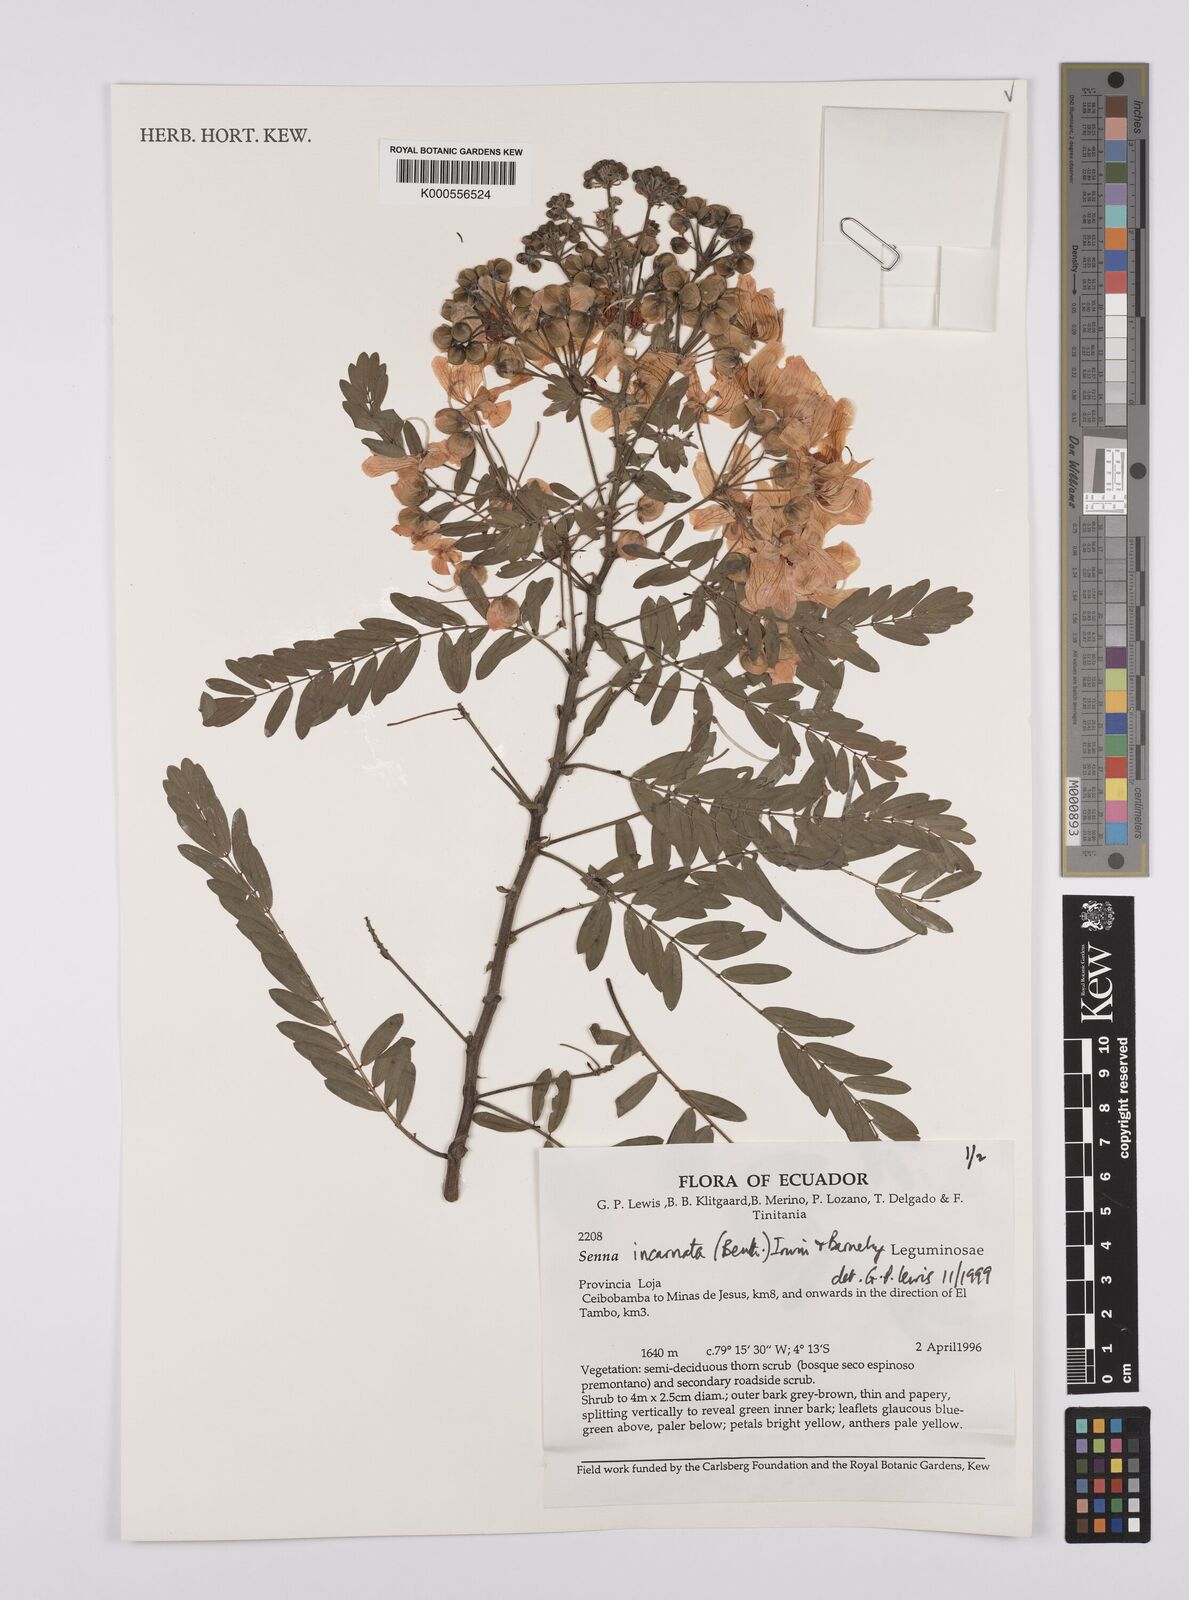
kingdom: Plantae
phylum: Tracheophyta
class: Magnoliopsida
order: Fabales
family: Fabaceae
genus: Senna
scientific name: Senna incarnata
